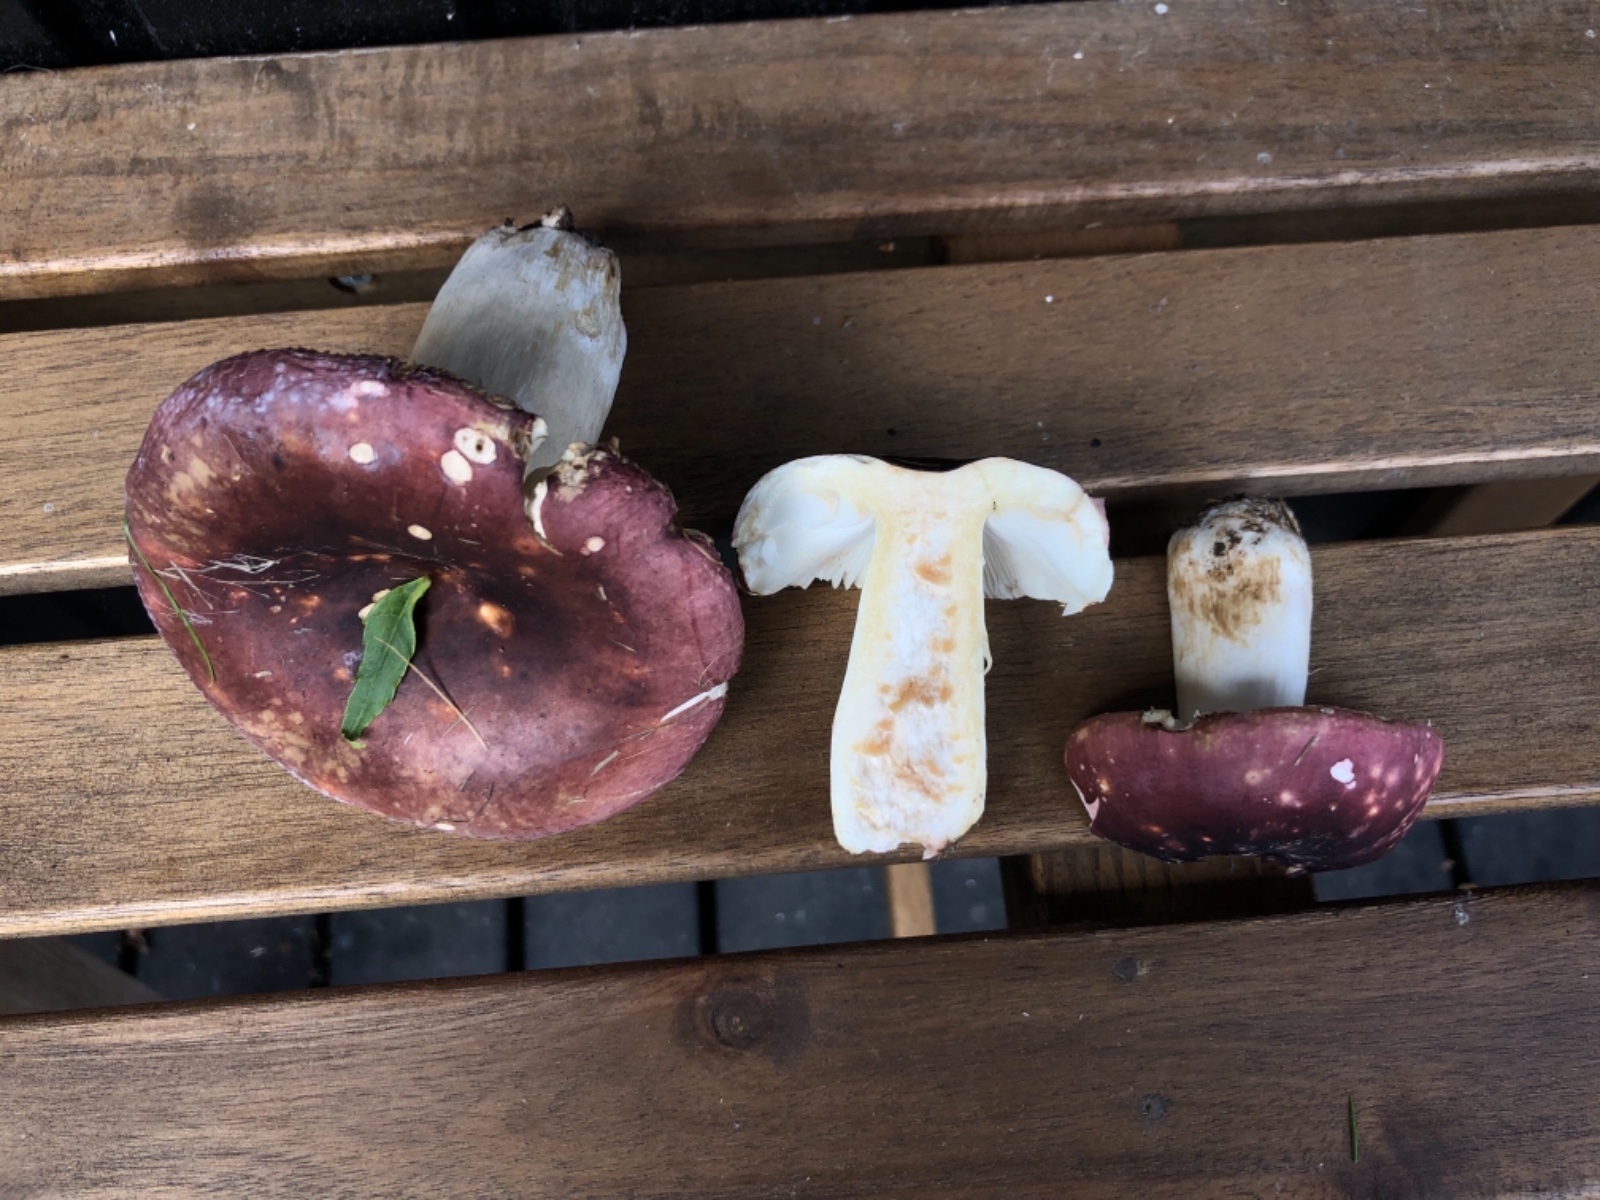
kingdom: Fungi
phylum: Basidiomycota
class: Agaricomycetes
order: Russulales
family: Russulaceae
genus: Russula
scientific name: Russula graveolens
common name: bugtet skørhat
